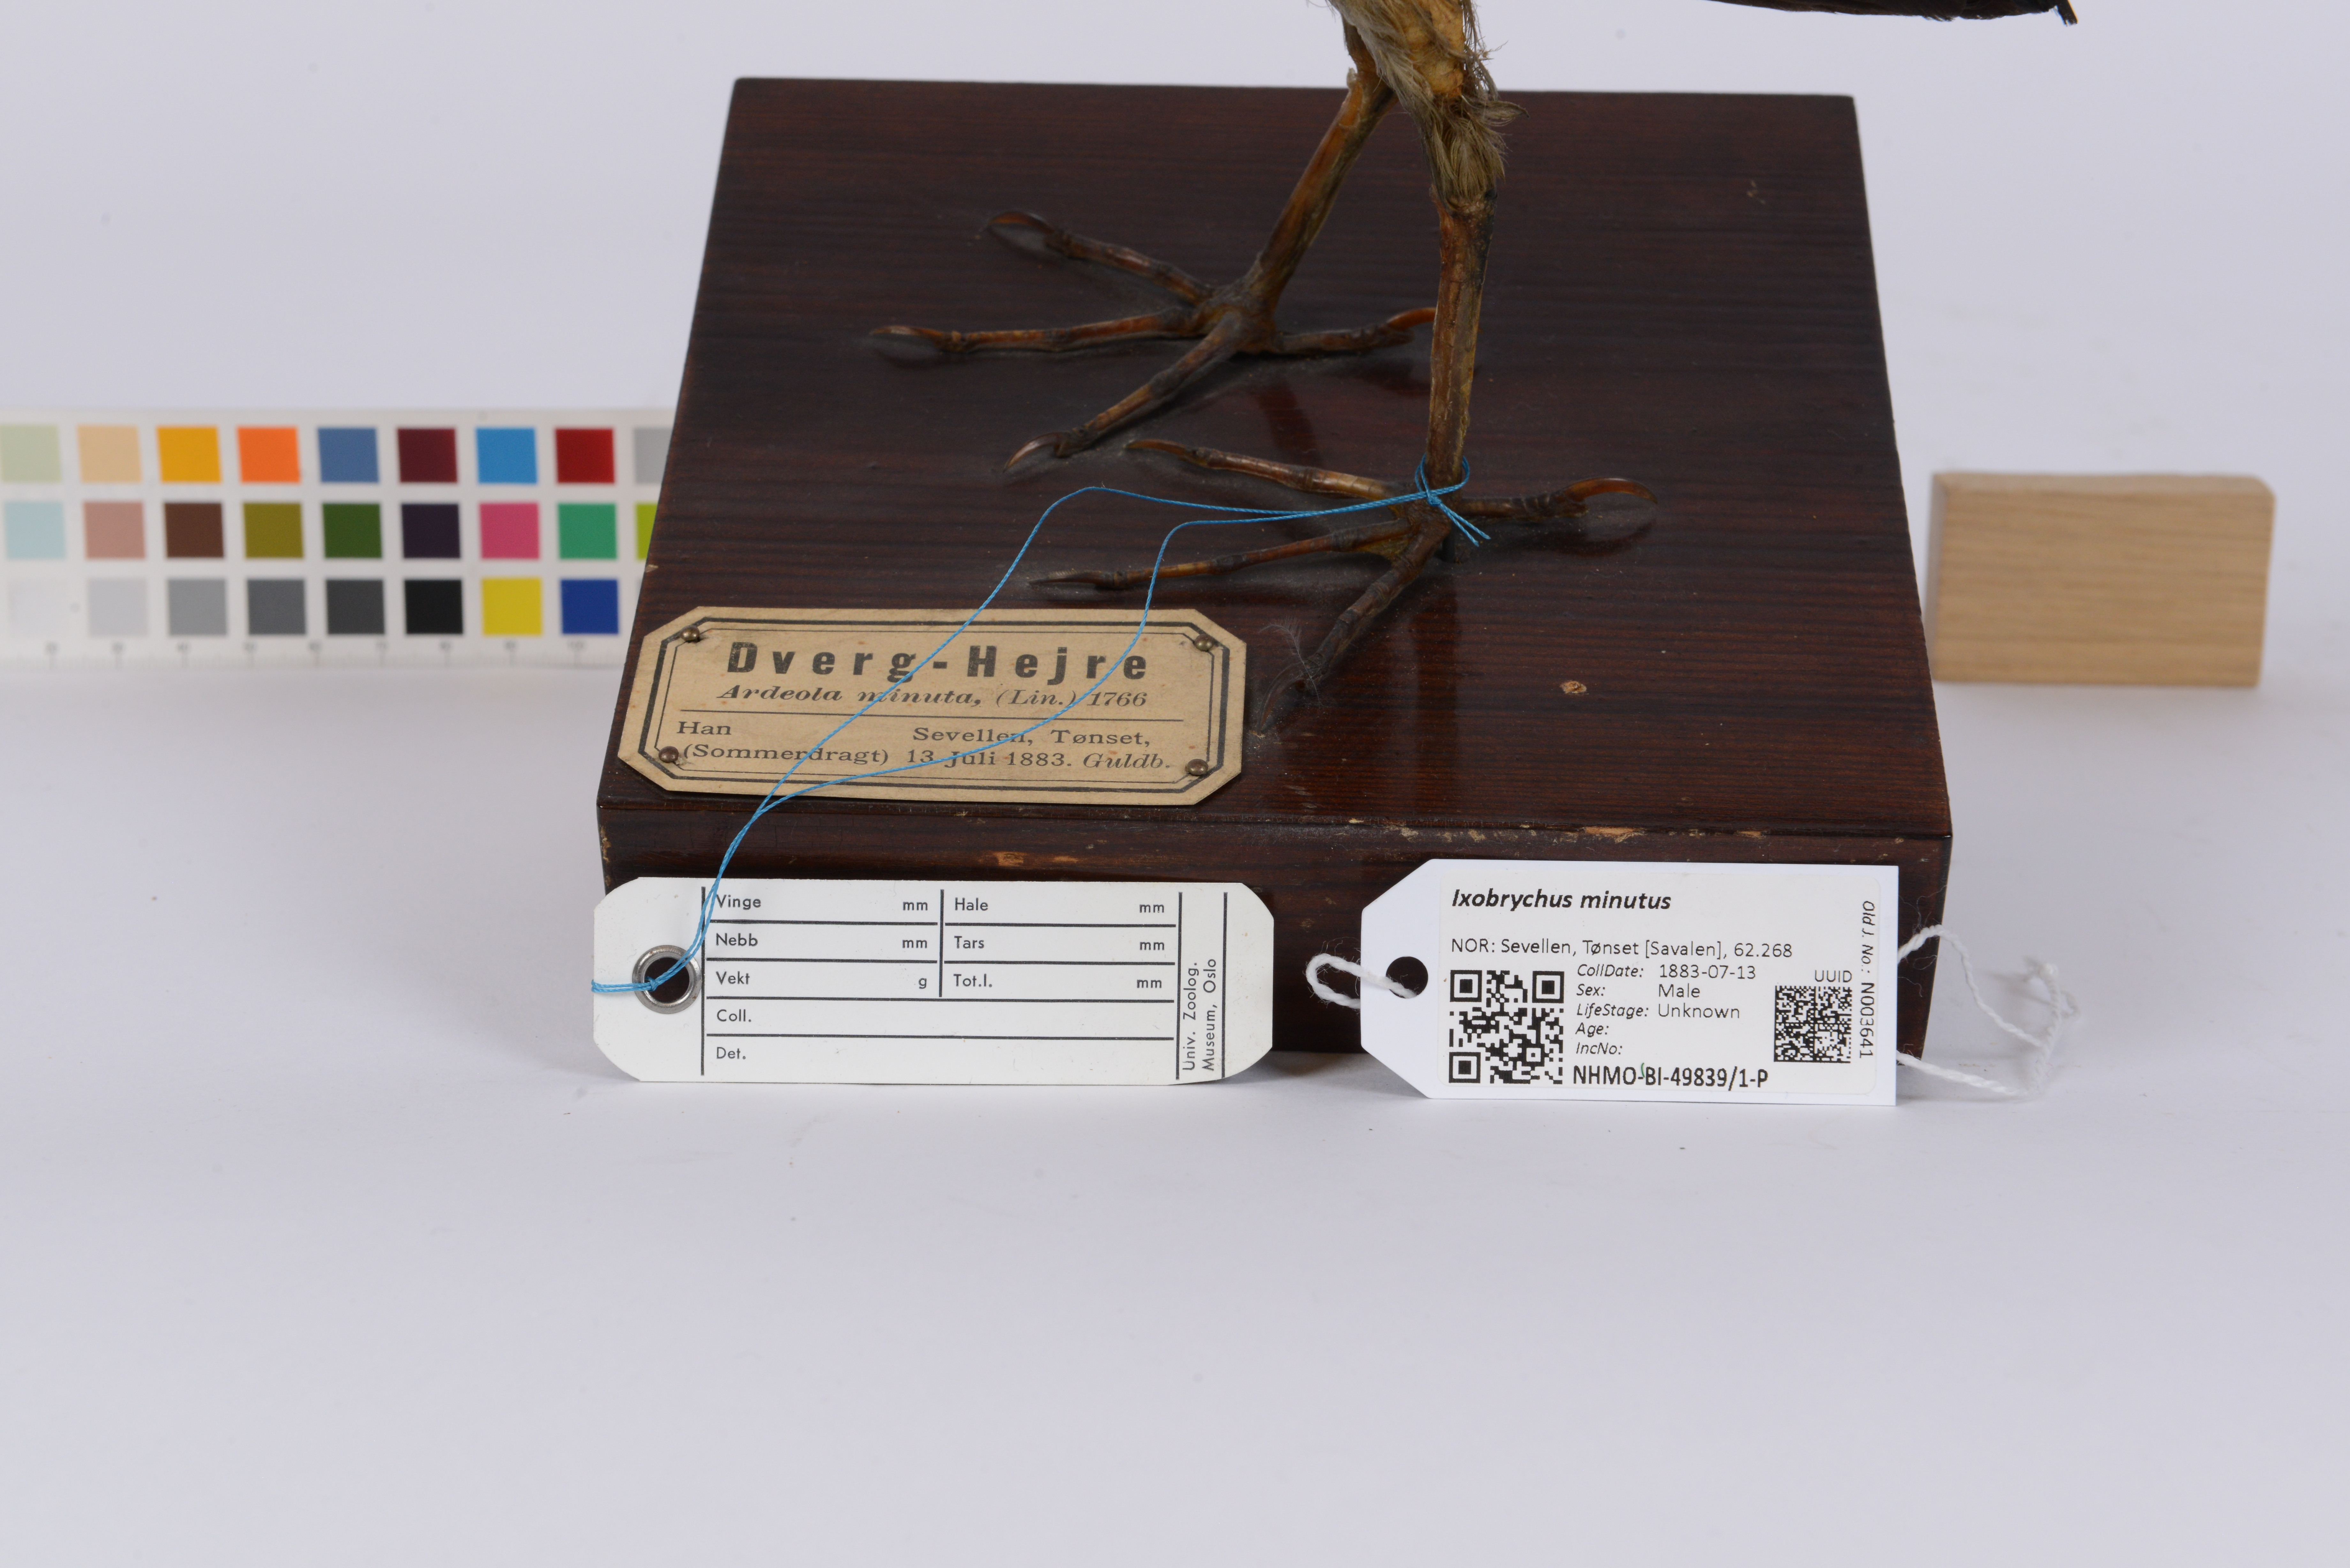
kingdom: Animalia
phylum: Chordata
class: Aves
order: Pelecaniformes
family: Ardeidae
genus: Ixobrychus
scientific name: Ixobrychus minutus
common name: Little bittern
